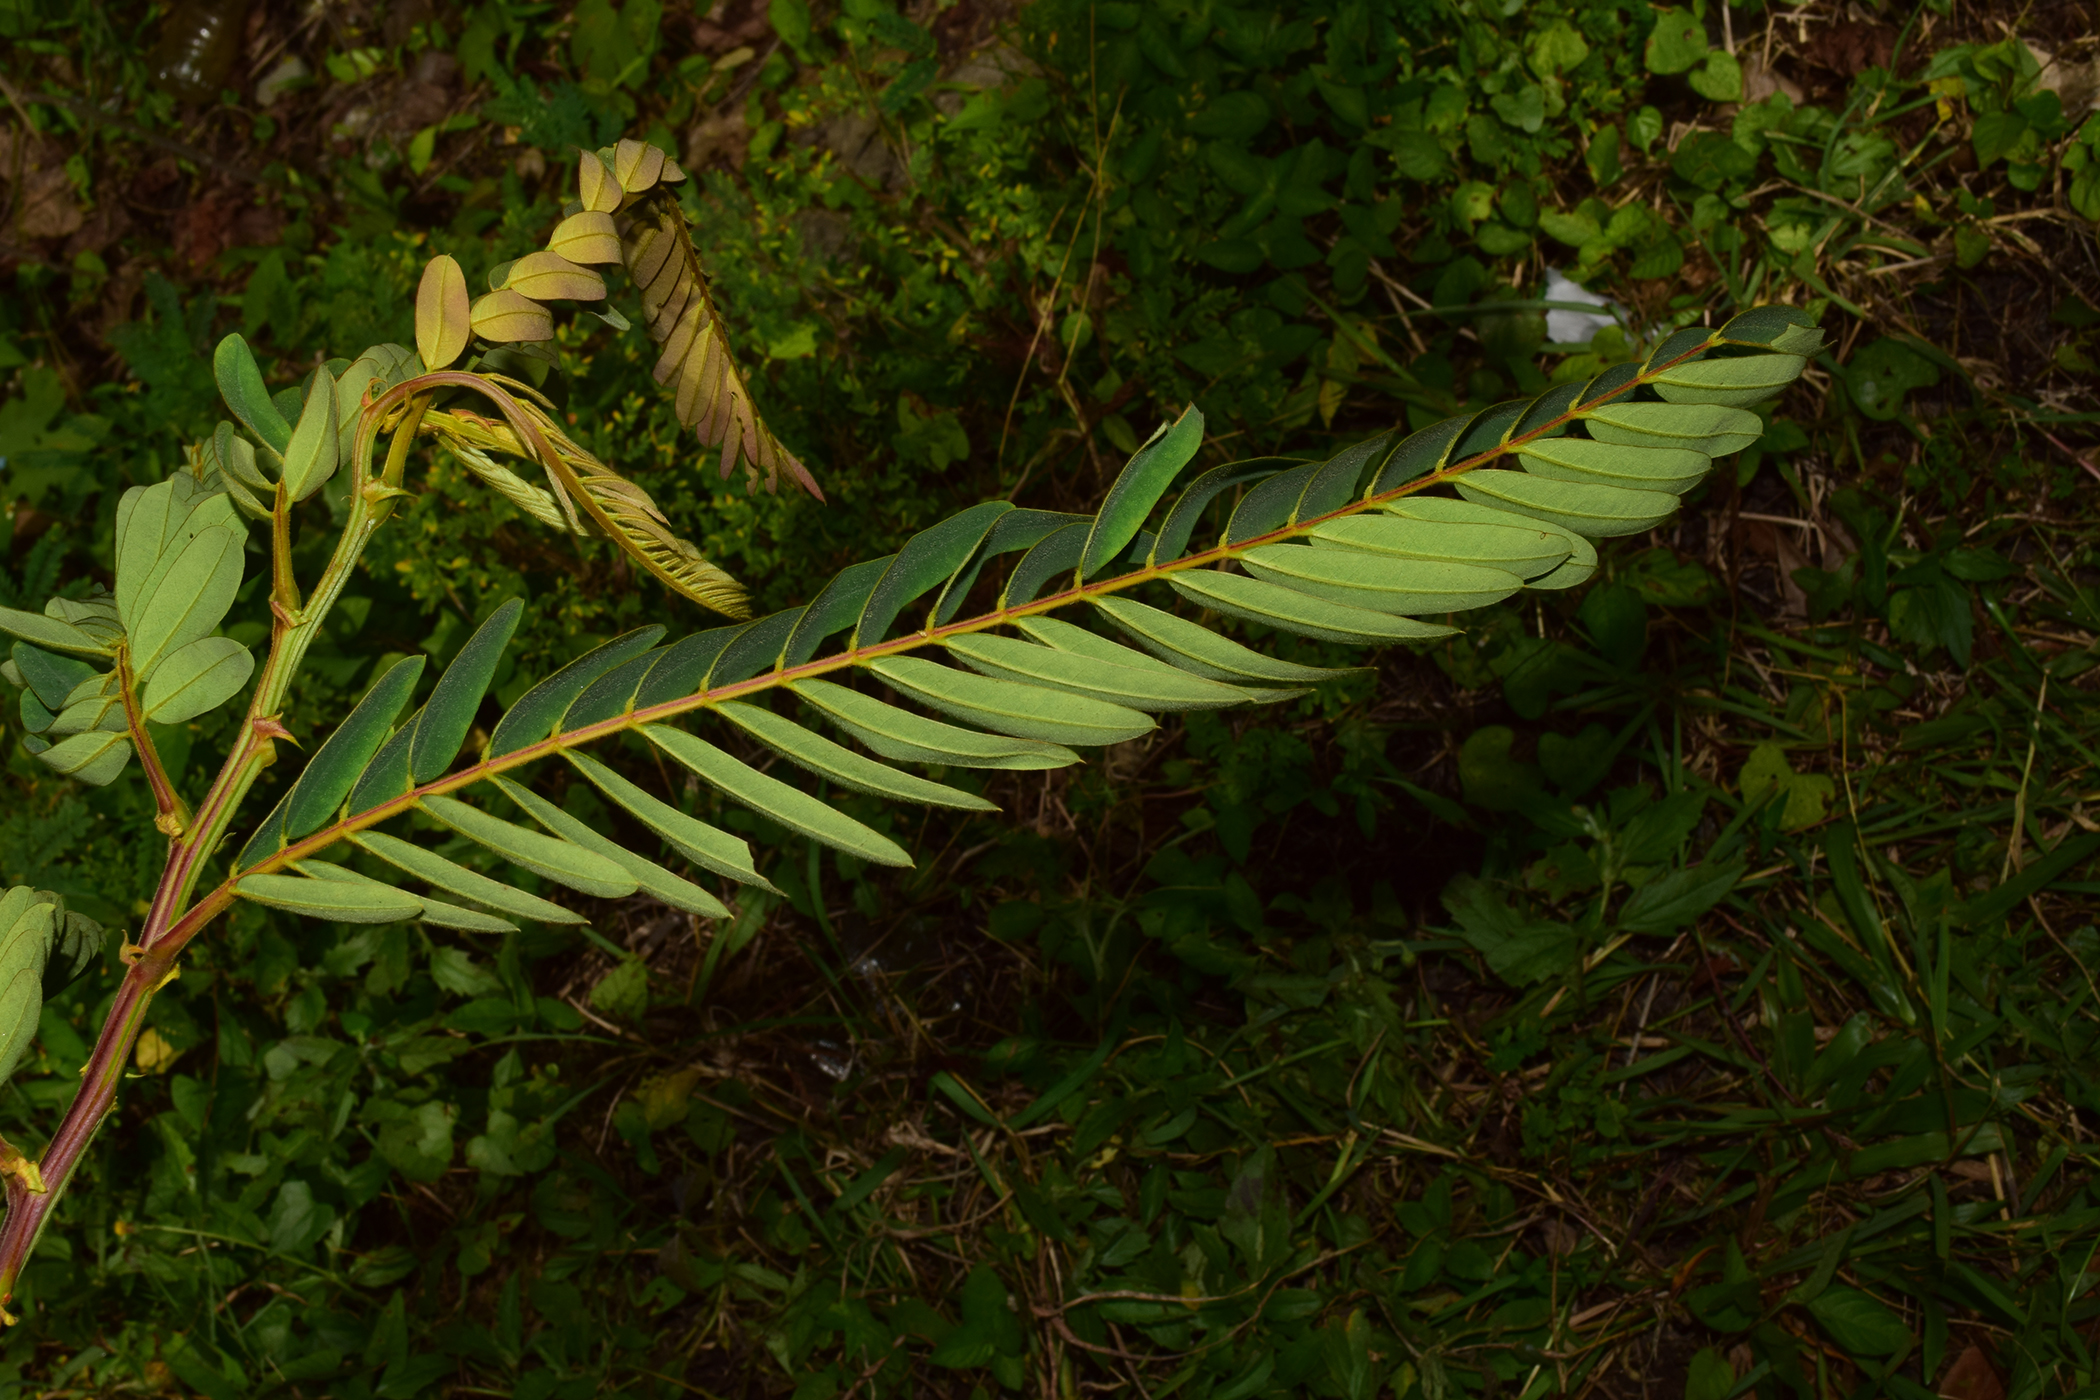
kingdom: Plantae
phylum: Tracheophyta
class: Magnoliopsida
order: Fabales
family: Fabaceae
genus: Senna
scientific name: Senna timoriensis
